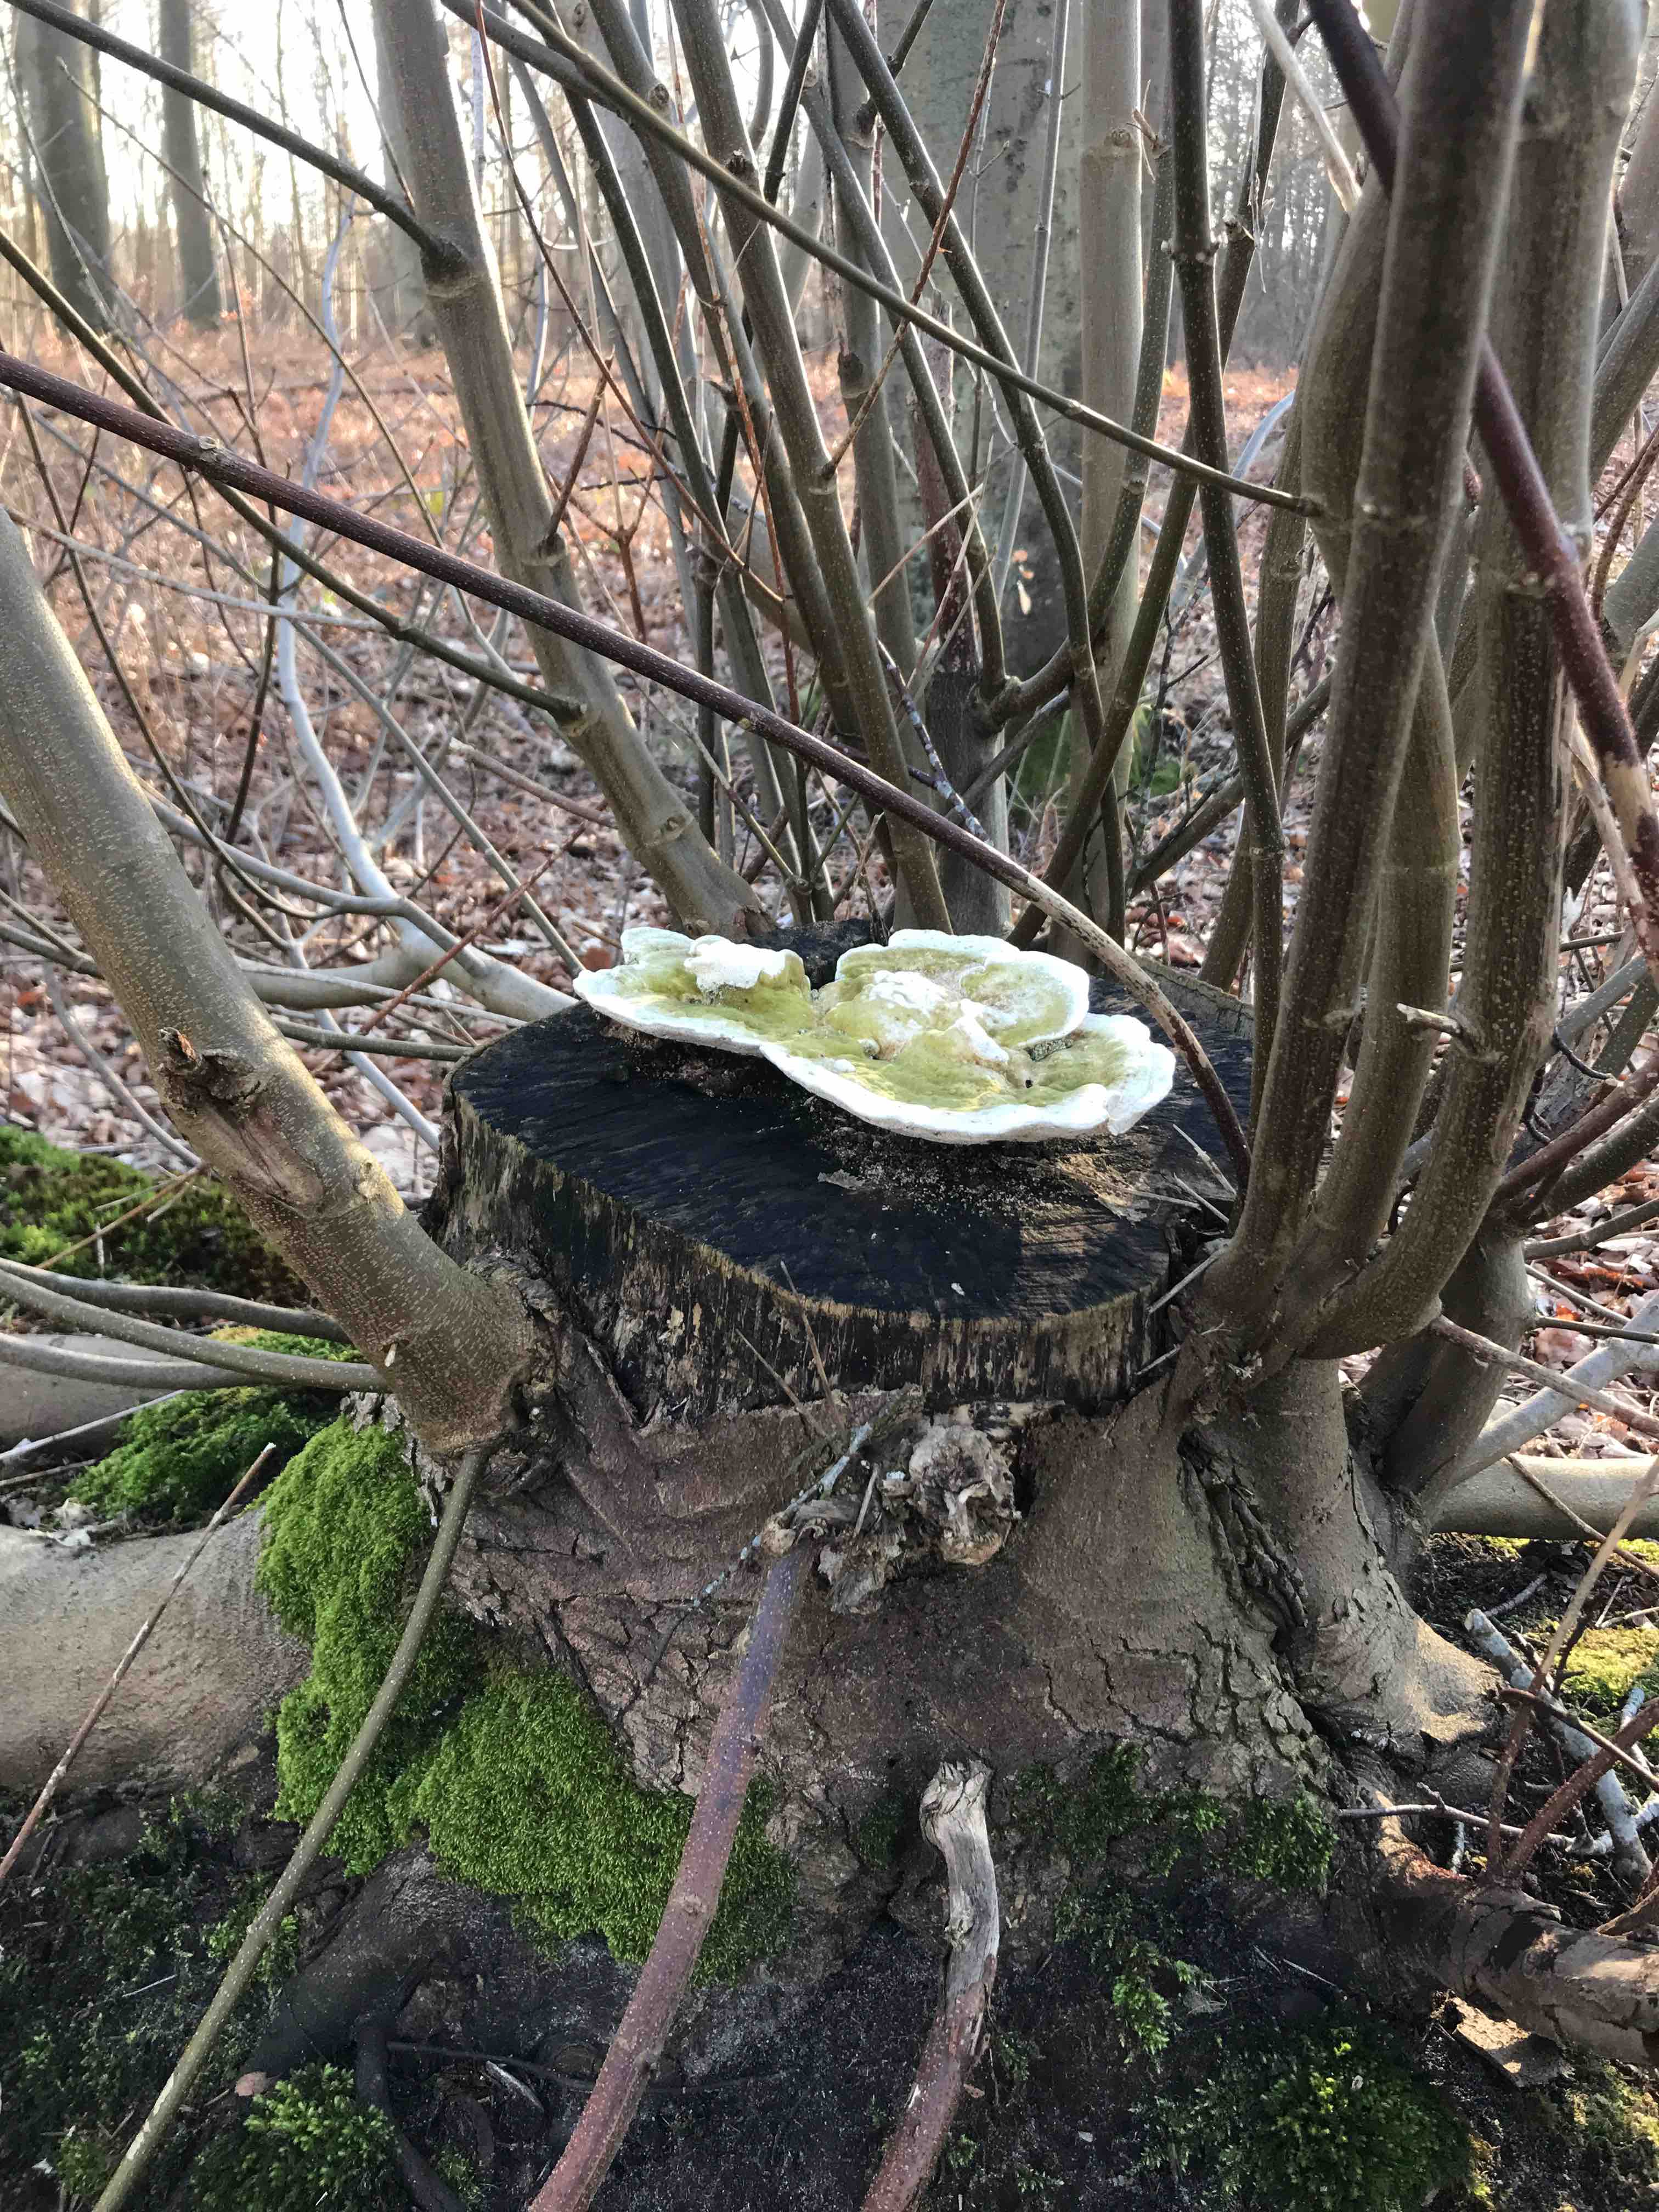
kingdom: Fungi
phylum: Basidiomycota
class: Agaricomycetes
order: Polyporales
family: Polyporaceae
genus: Trametes
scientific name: Trametes gibbosa
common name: puklet læderporesvamp
